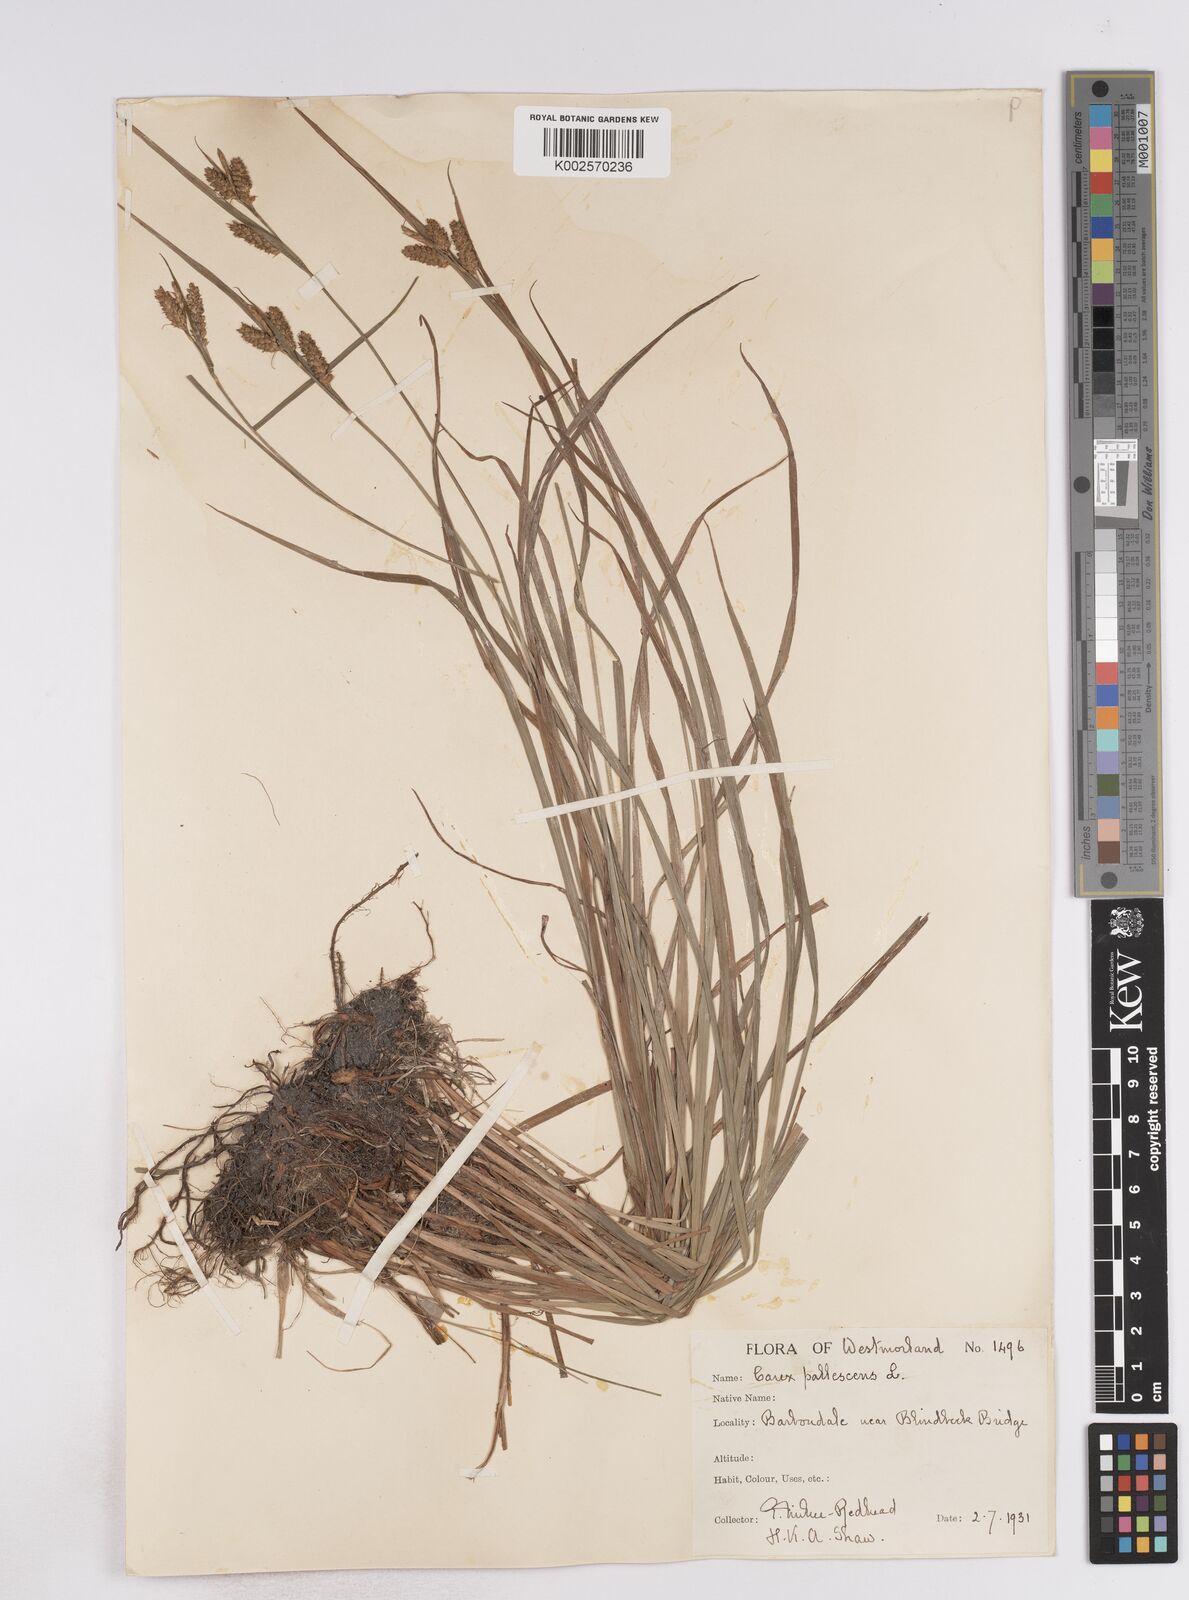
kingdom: Plantae
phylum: Tracheophyta
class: Liliopsida
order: Poales
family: Cyperaceae
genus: Carex
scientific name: Carex pallescens
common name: Pale sedge
